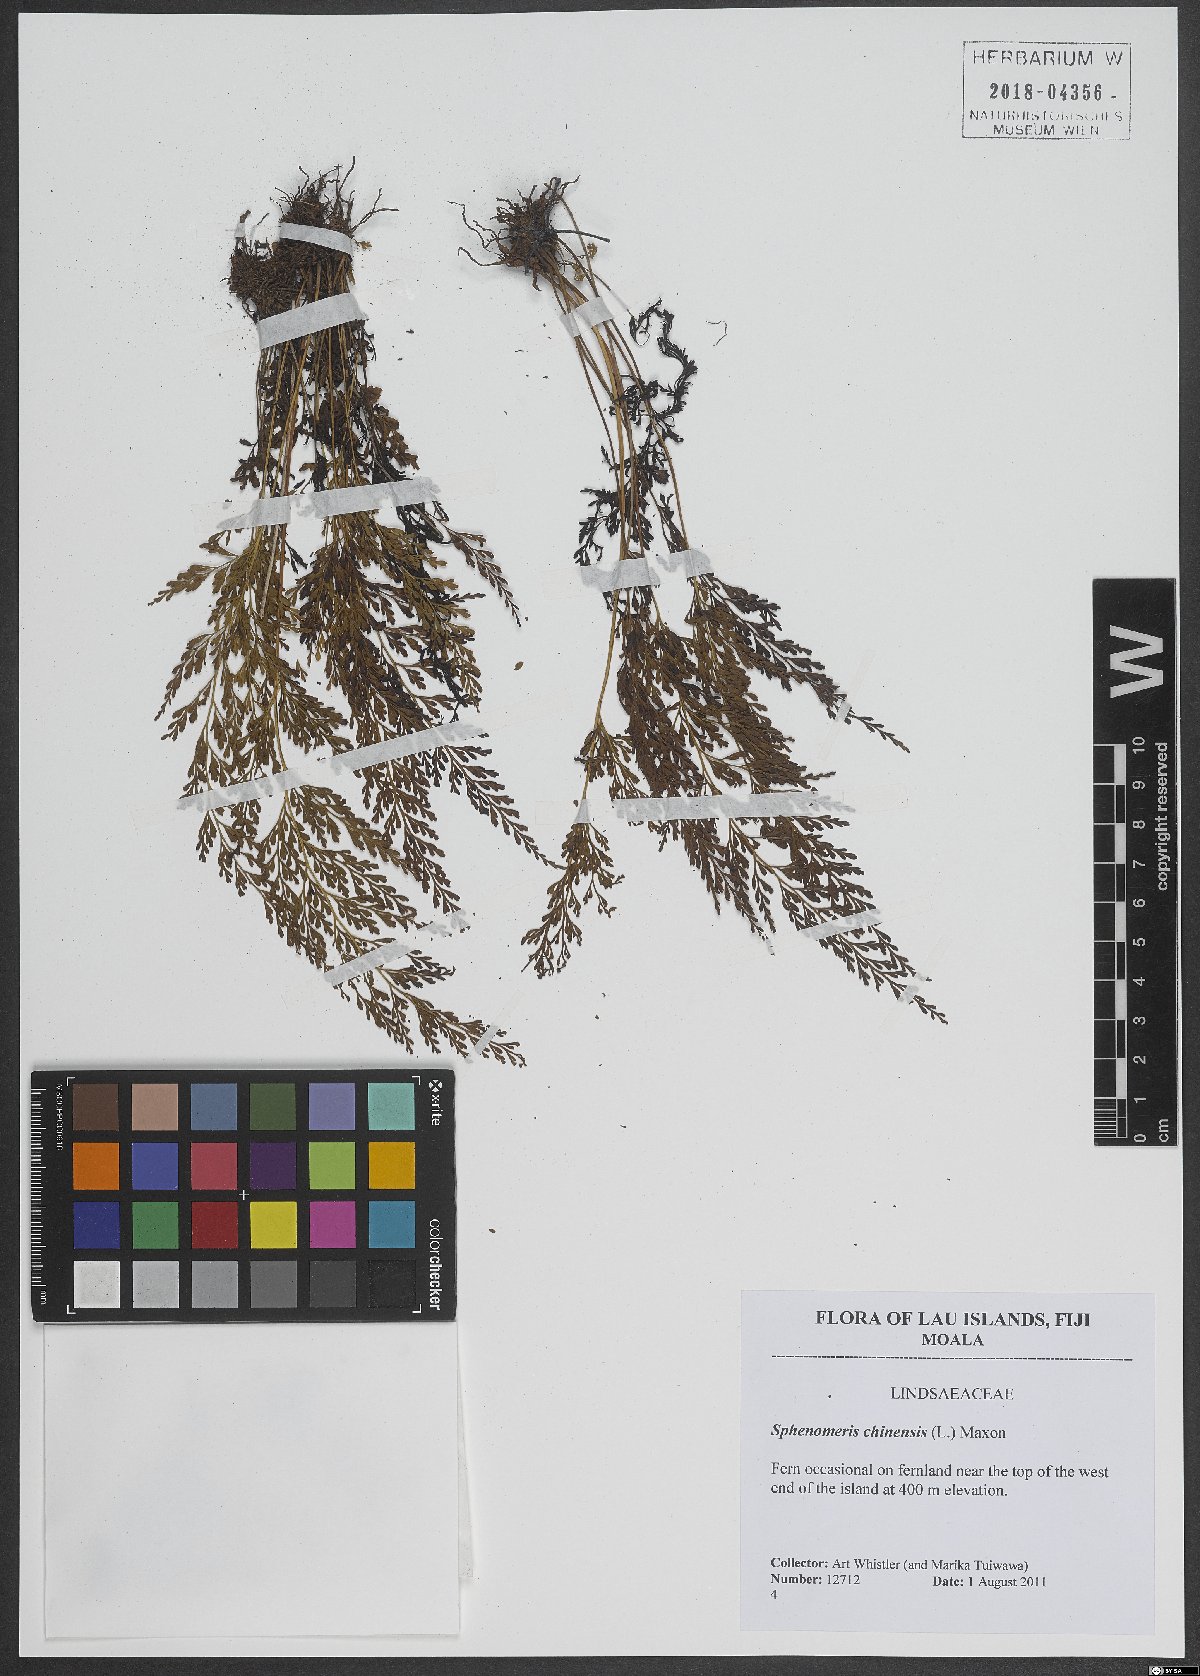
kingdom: Plantae
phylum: Tracheophyta
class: Polypodiopsida
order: Polypodiales
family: Lindsaeaceae
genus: Odontosoria
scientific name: Odontosoria chinensis
